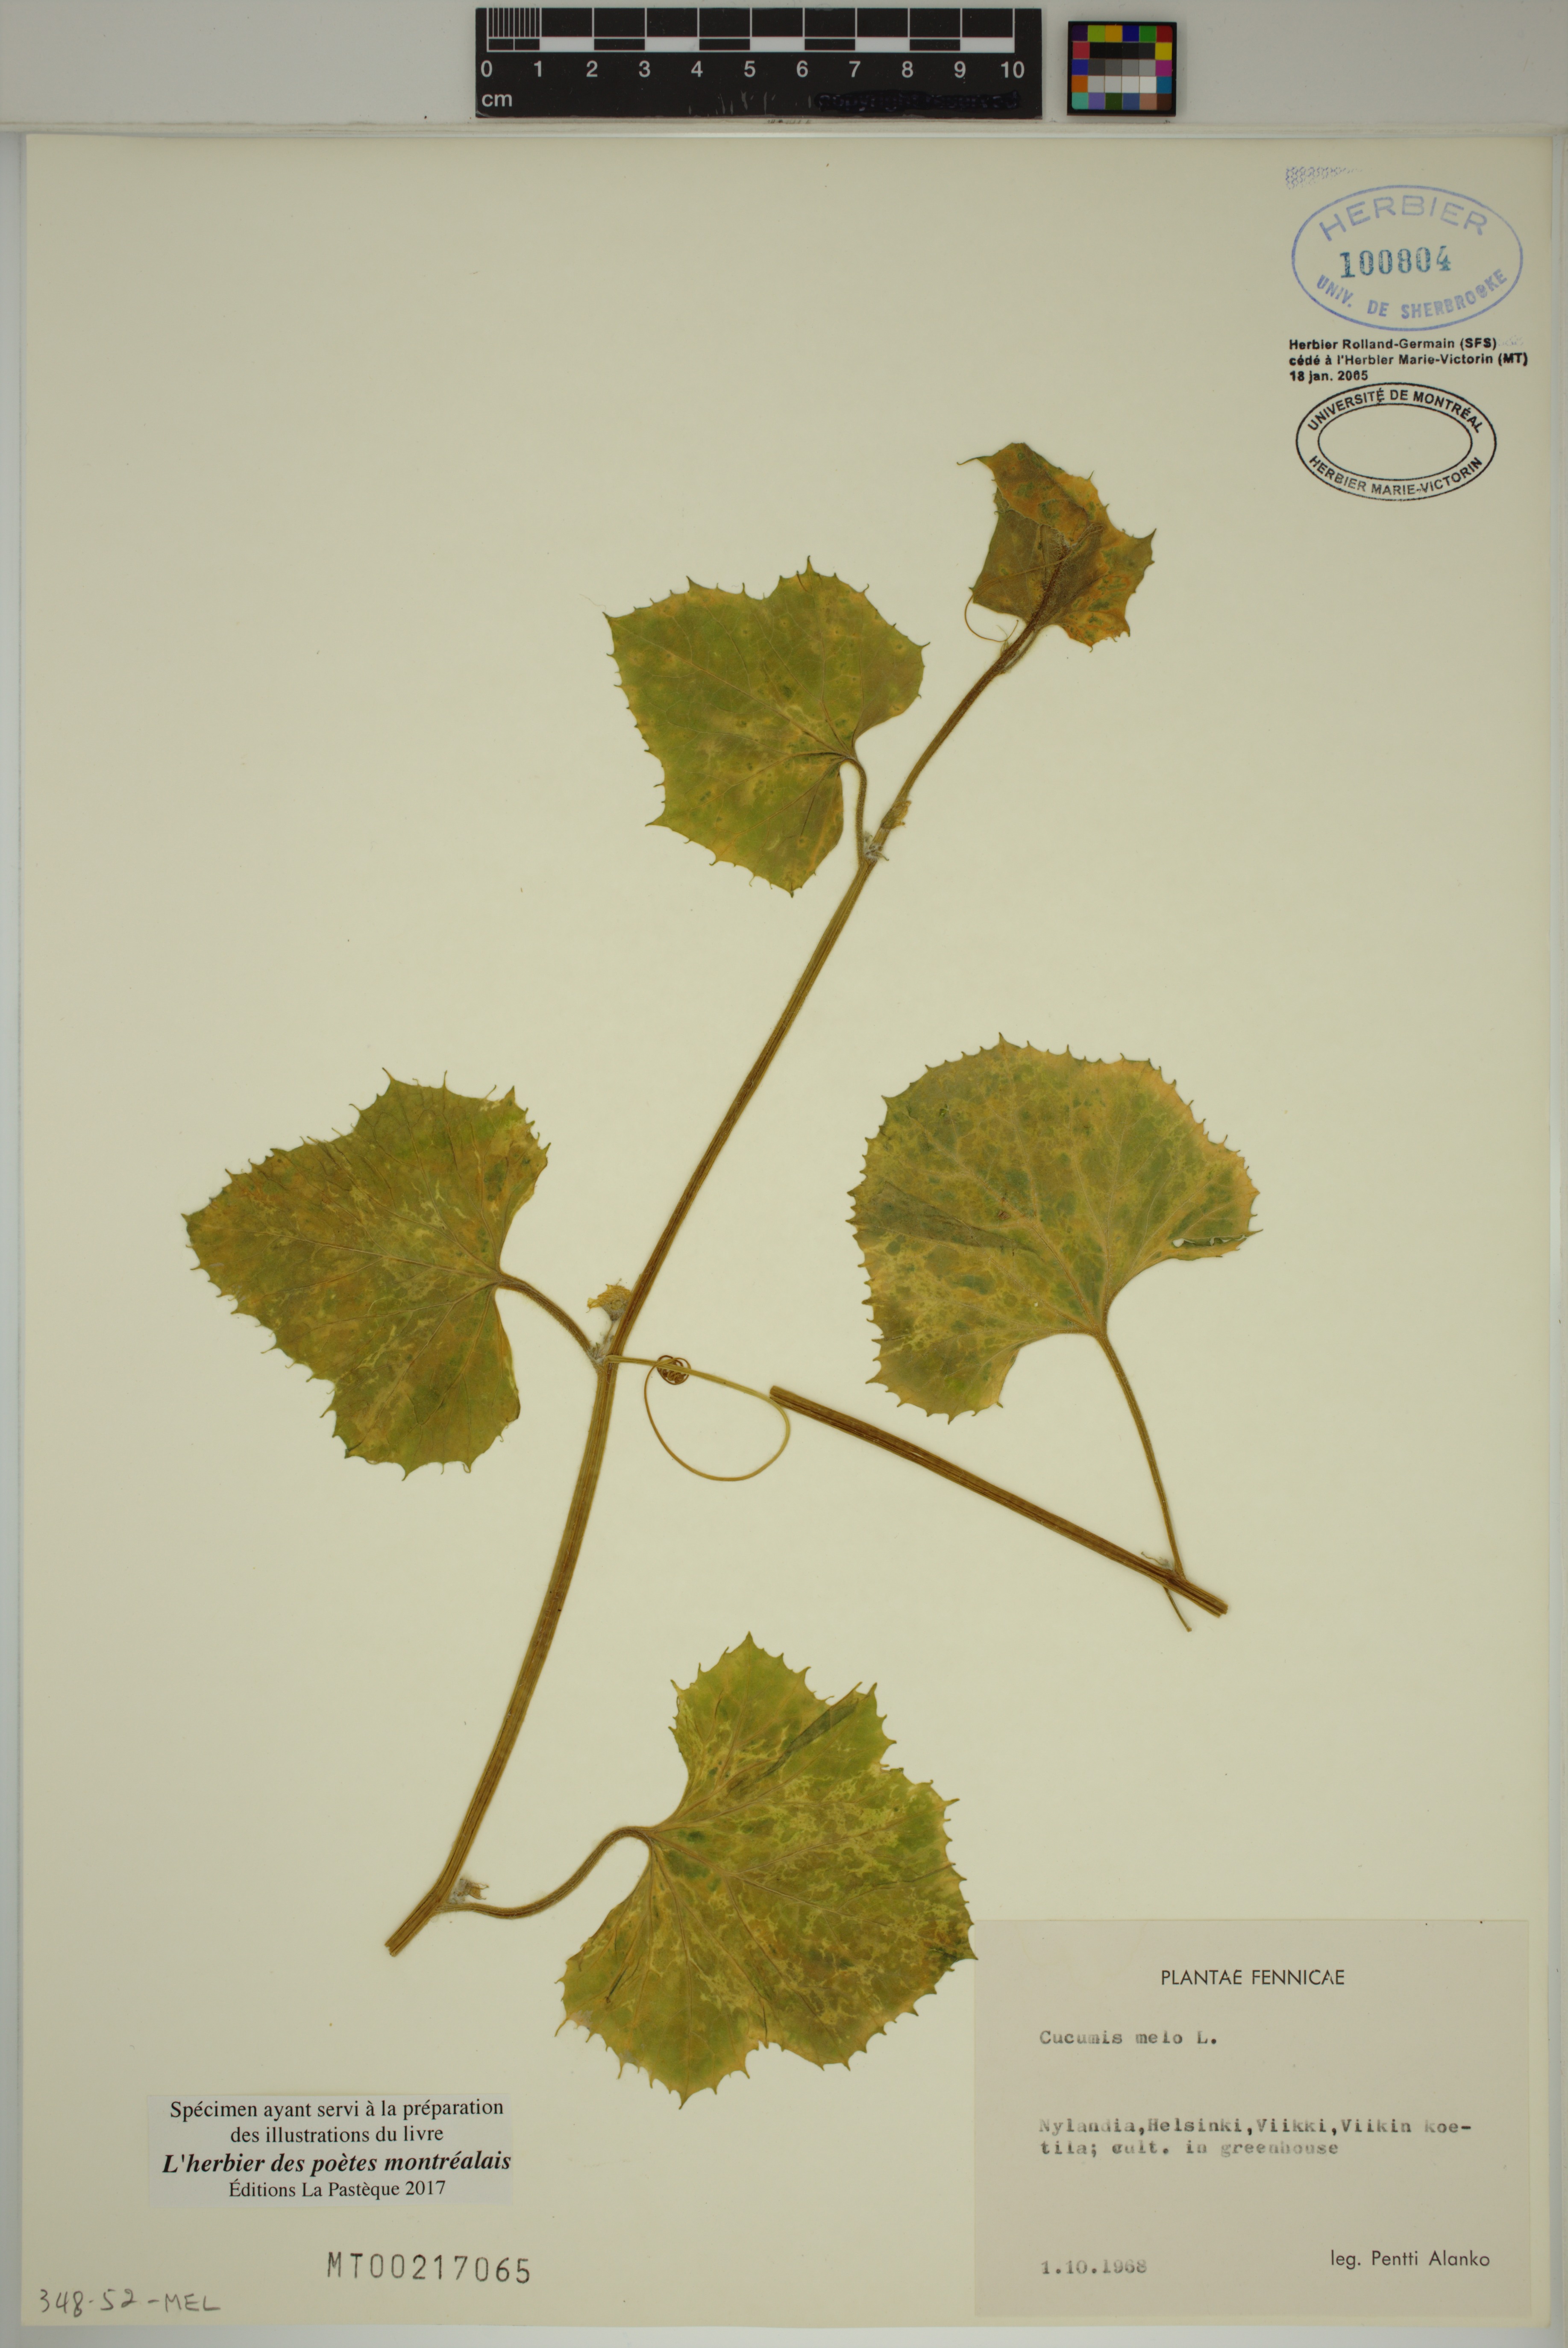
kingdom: Plantae
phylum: Tracheophyta
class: Magnoliopsida
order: Cucurbitales
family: Cucurbitaceae
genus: Cucumis
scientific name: Cucumis melo
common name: Melon
